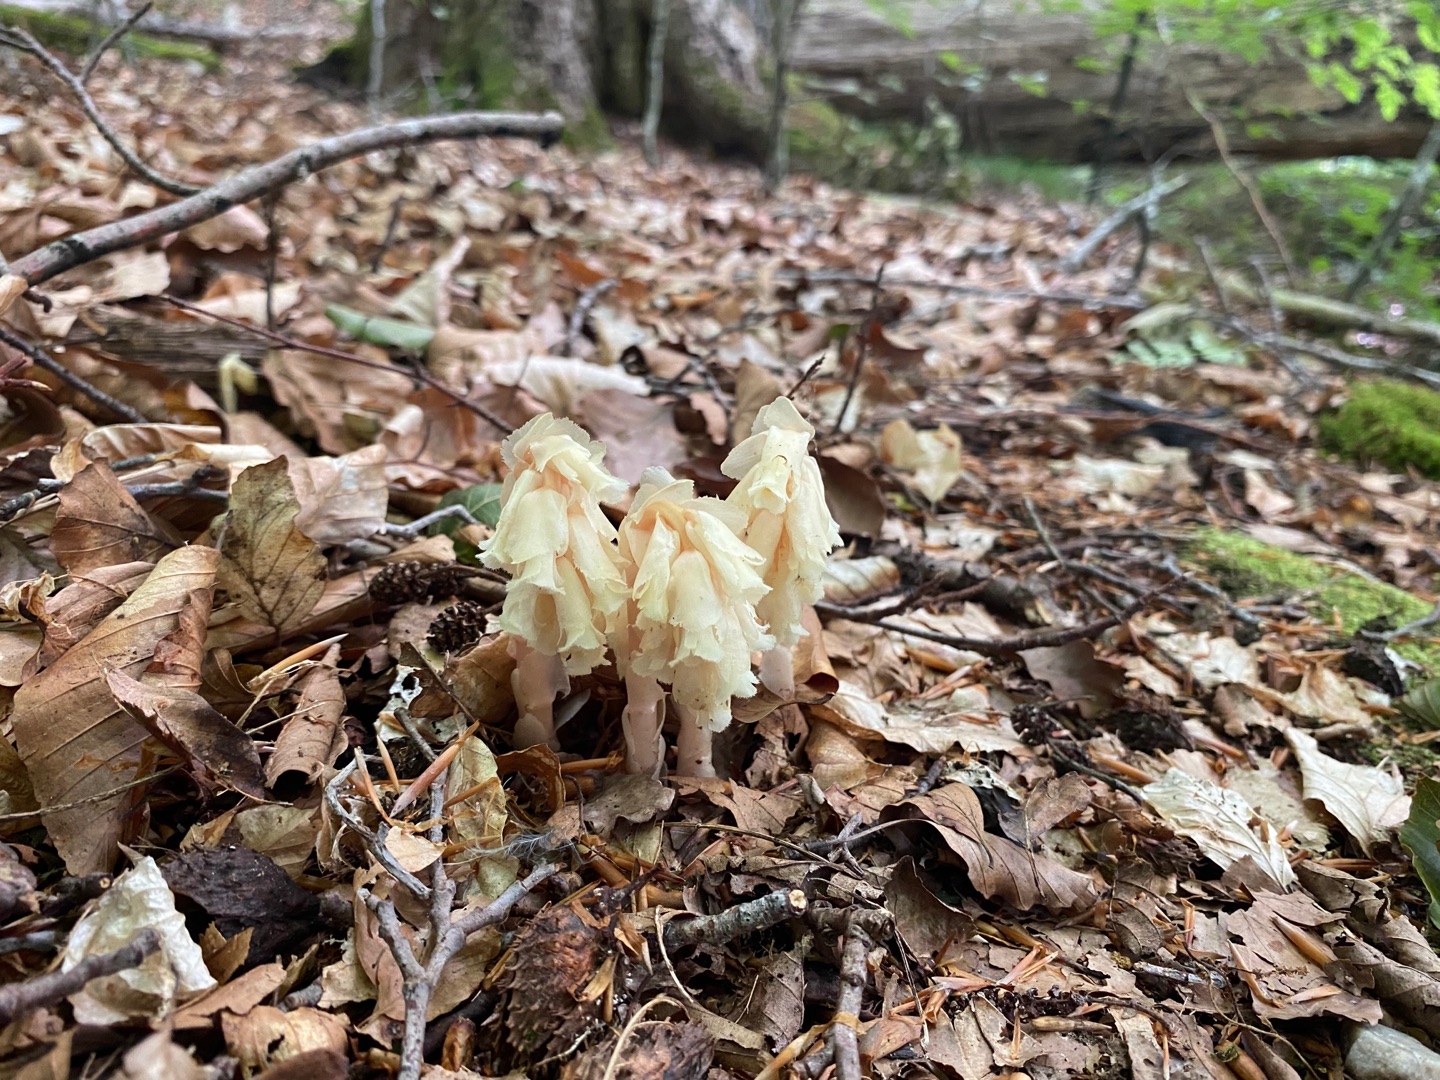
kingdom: Plantae
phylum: Tracheophyta
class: Magnoliopsida
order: Ericales
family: Ericaceae
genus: Hypopitys
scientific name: Hypopitys monotropa
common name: Håret snylterod
